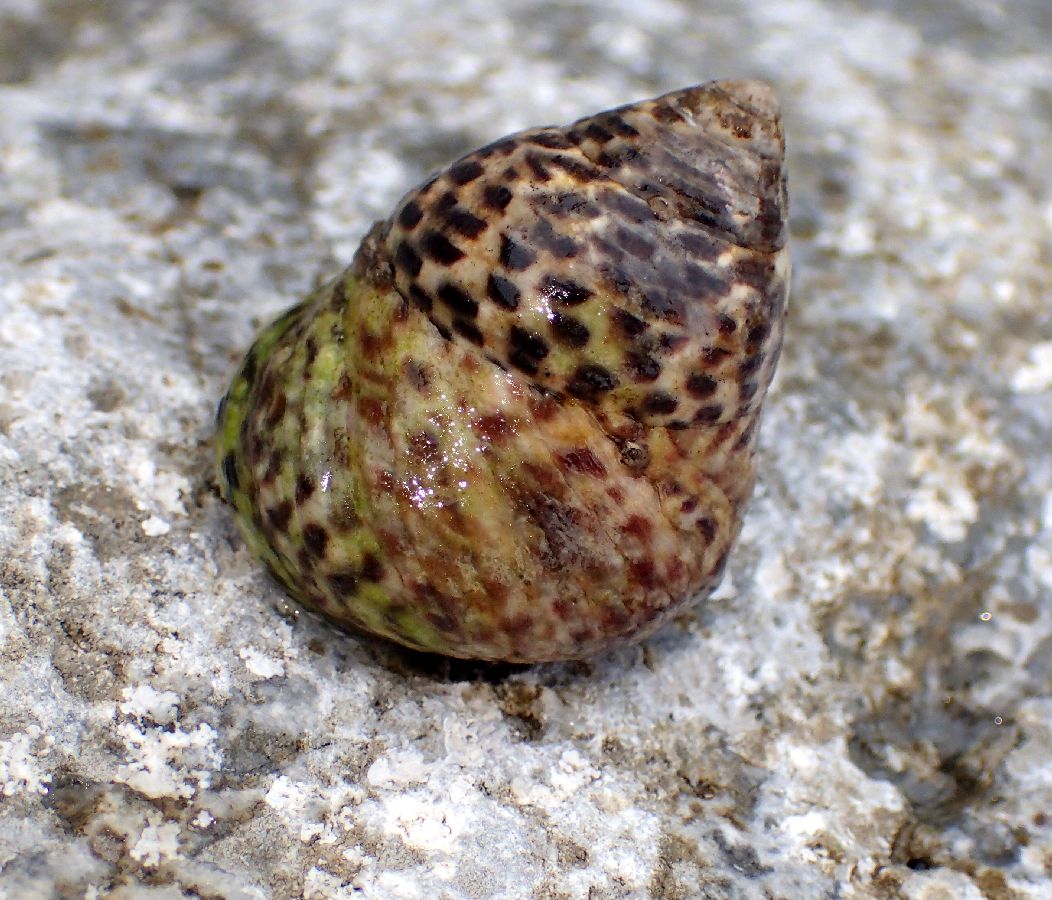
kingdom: Animalia
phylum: Mollusca
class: Gastropoda
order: Trochida
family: Trochidae
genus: Phorcus
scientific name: Phorcus turbinatus
